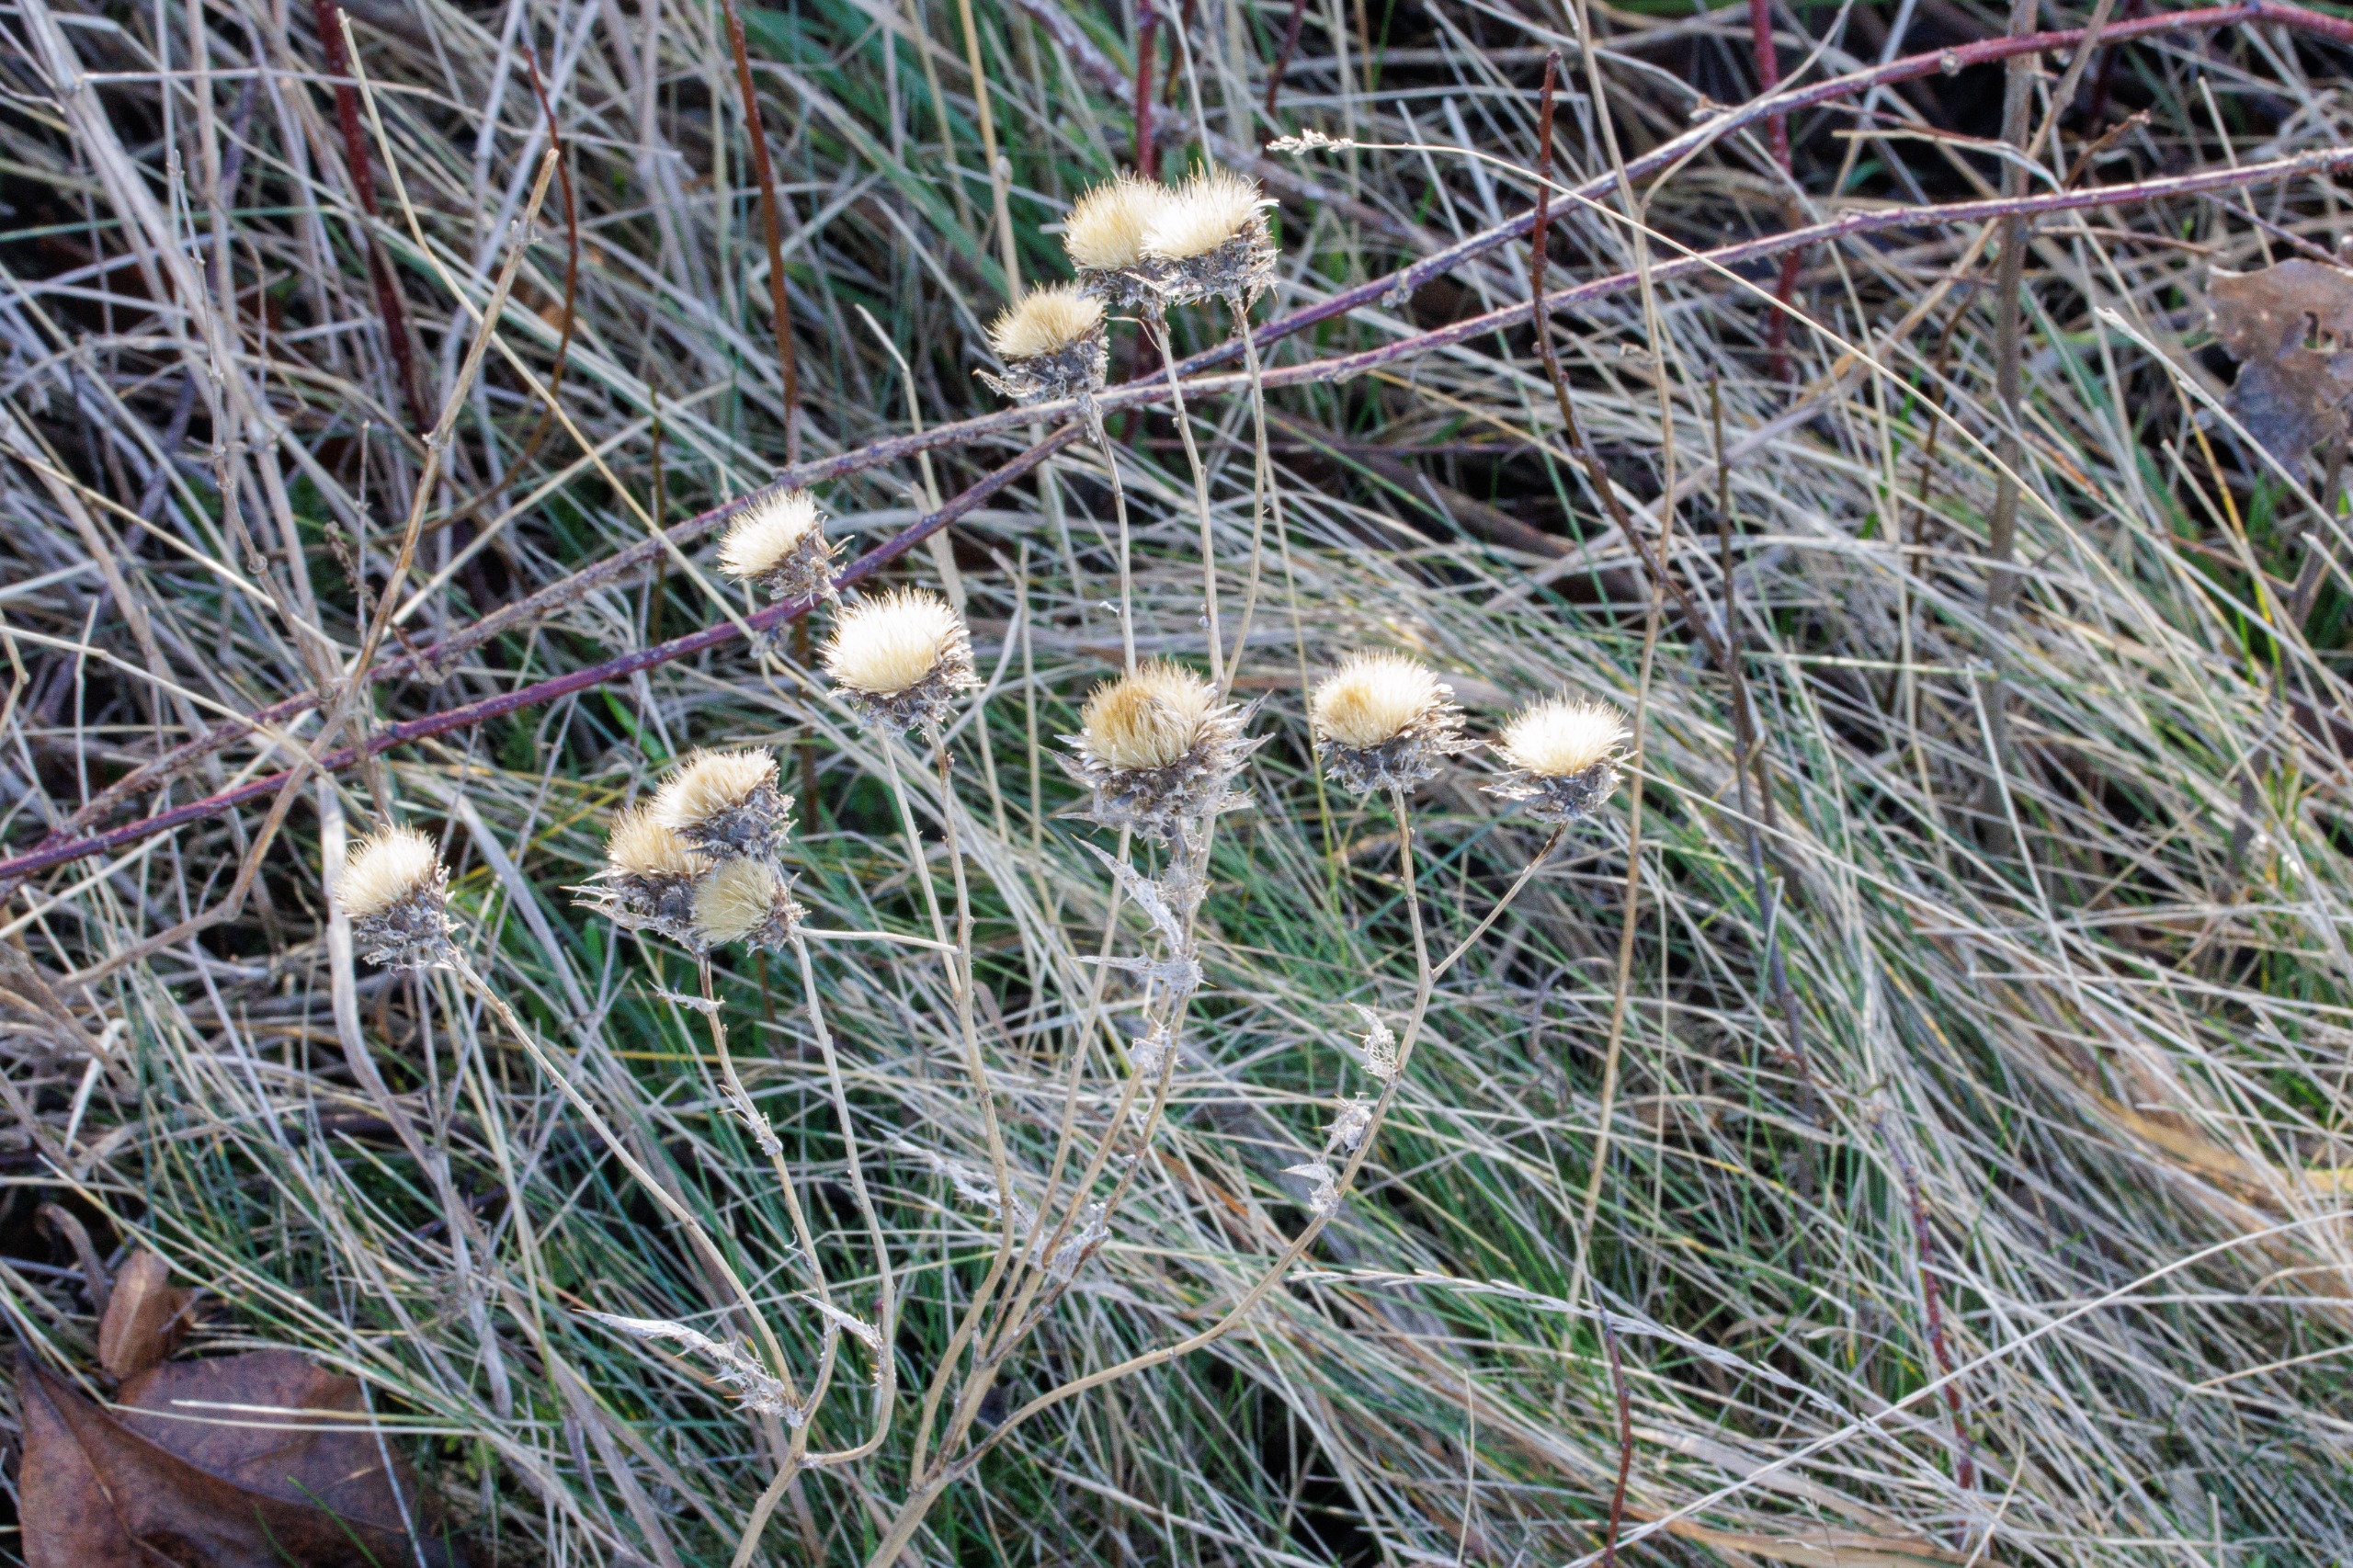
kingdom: Plantae
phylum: Tracheophyta
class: Magnoliopsida
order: Asterales
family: Asteraceae
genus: Carlina
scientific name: Carlina vulgaris
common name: Bakketidsel
